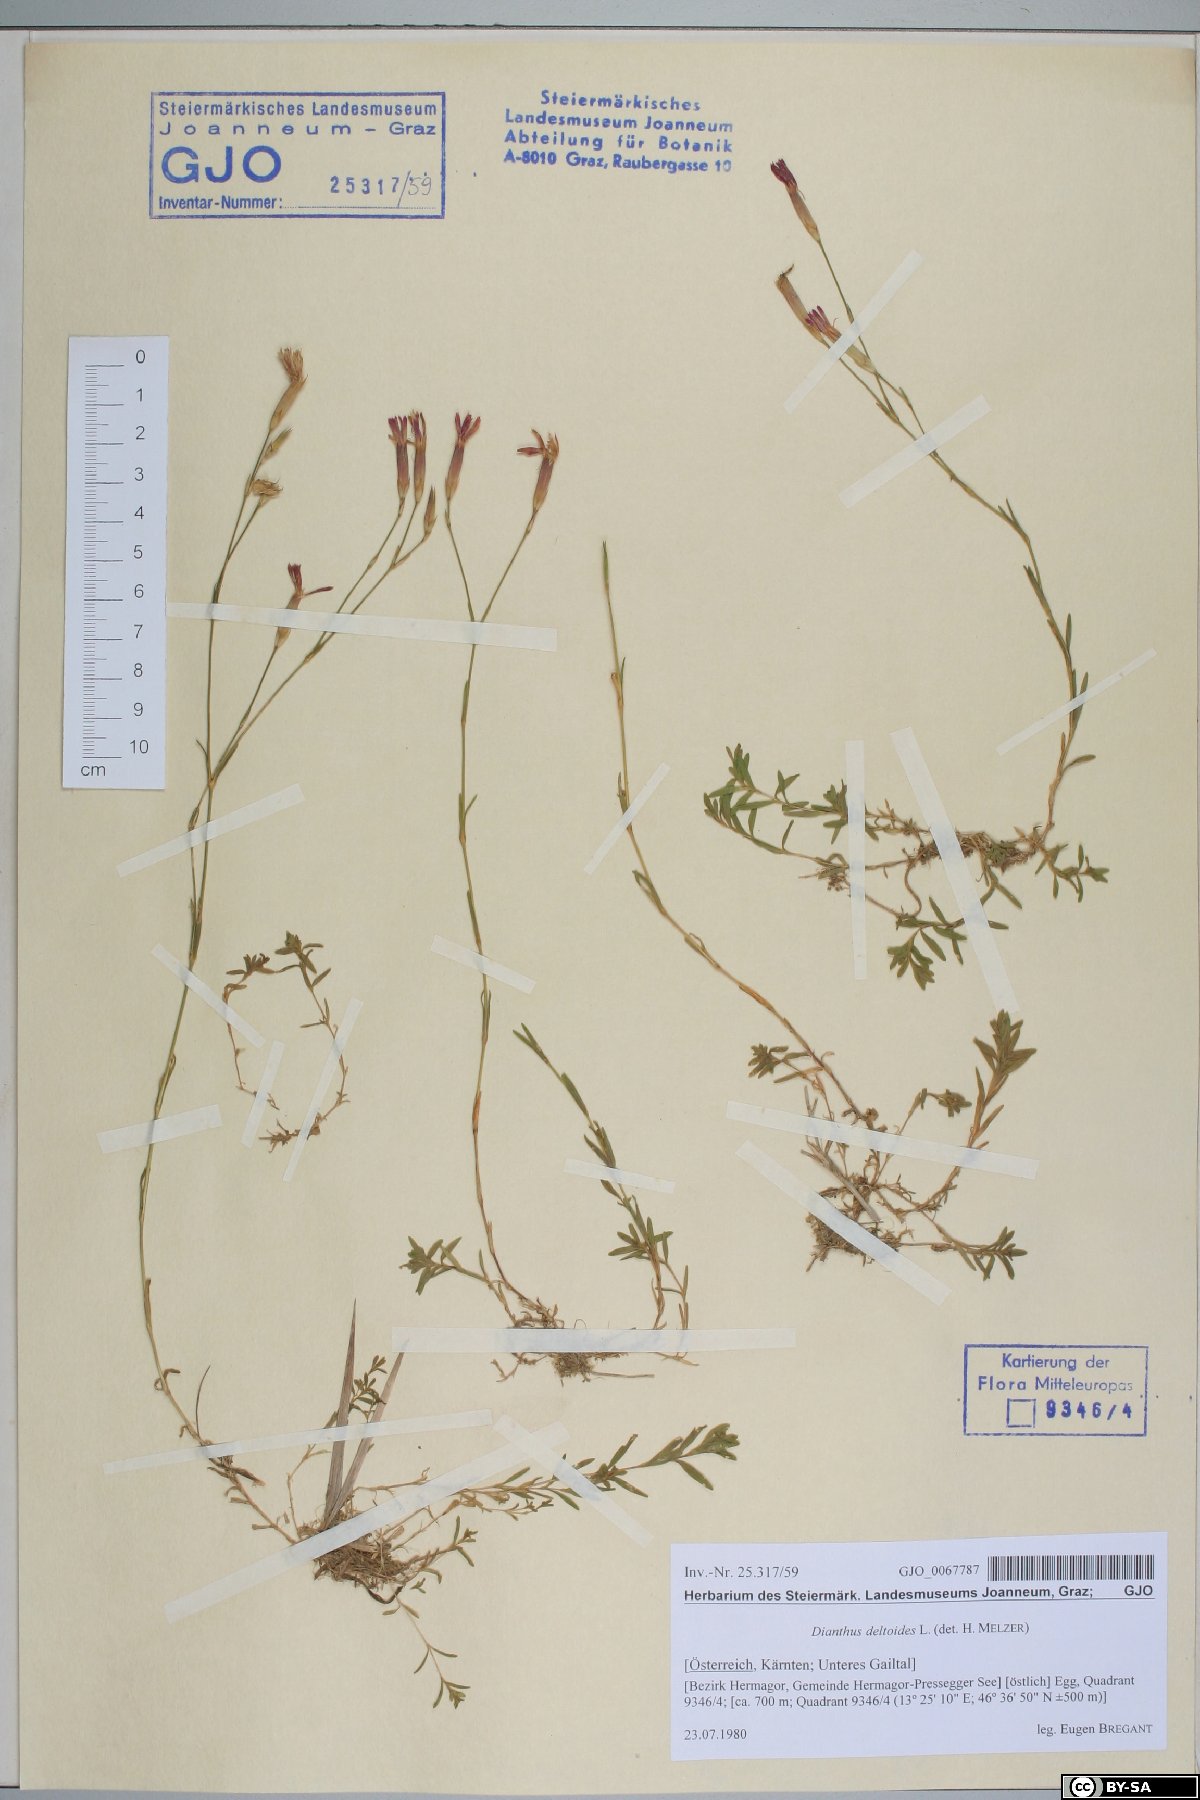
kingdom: Plantae
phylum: Tracheophyta
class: Magnoliopsida
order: Caryophyllales
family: Caryophyllaceae
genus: Dianthus
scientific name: Dianthus deltoides
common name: Maiden pink
